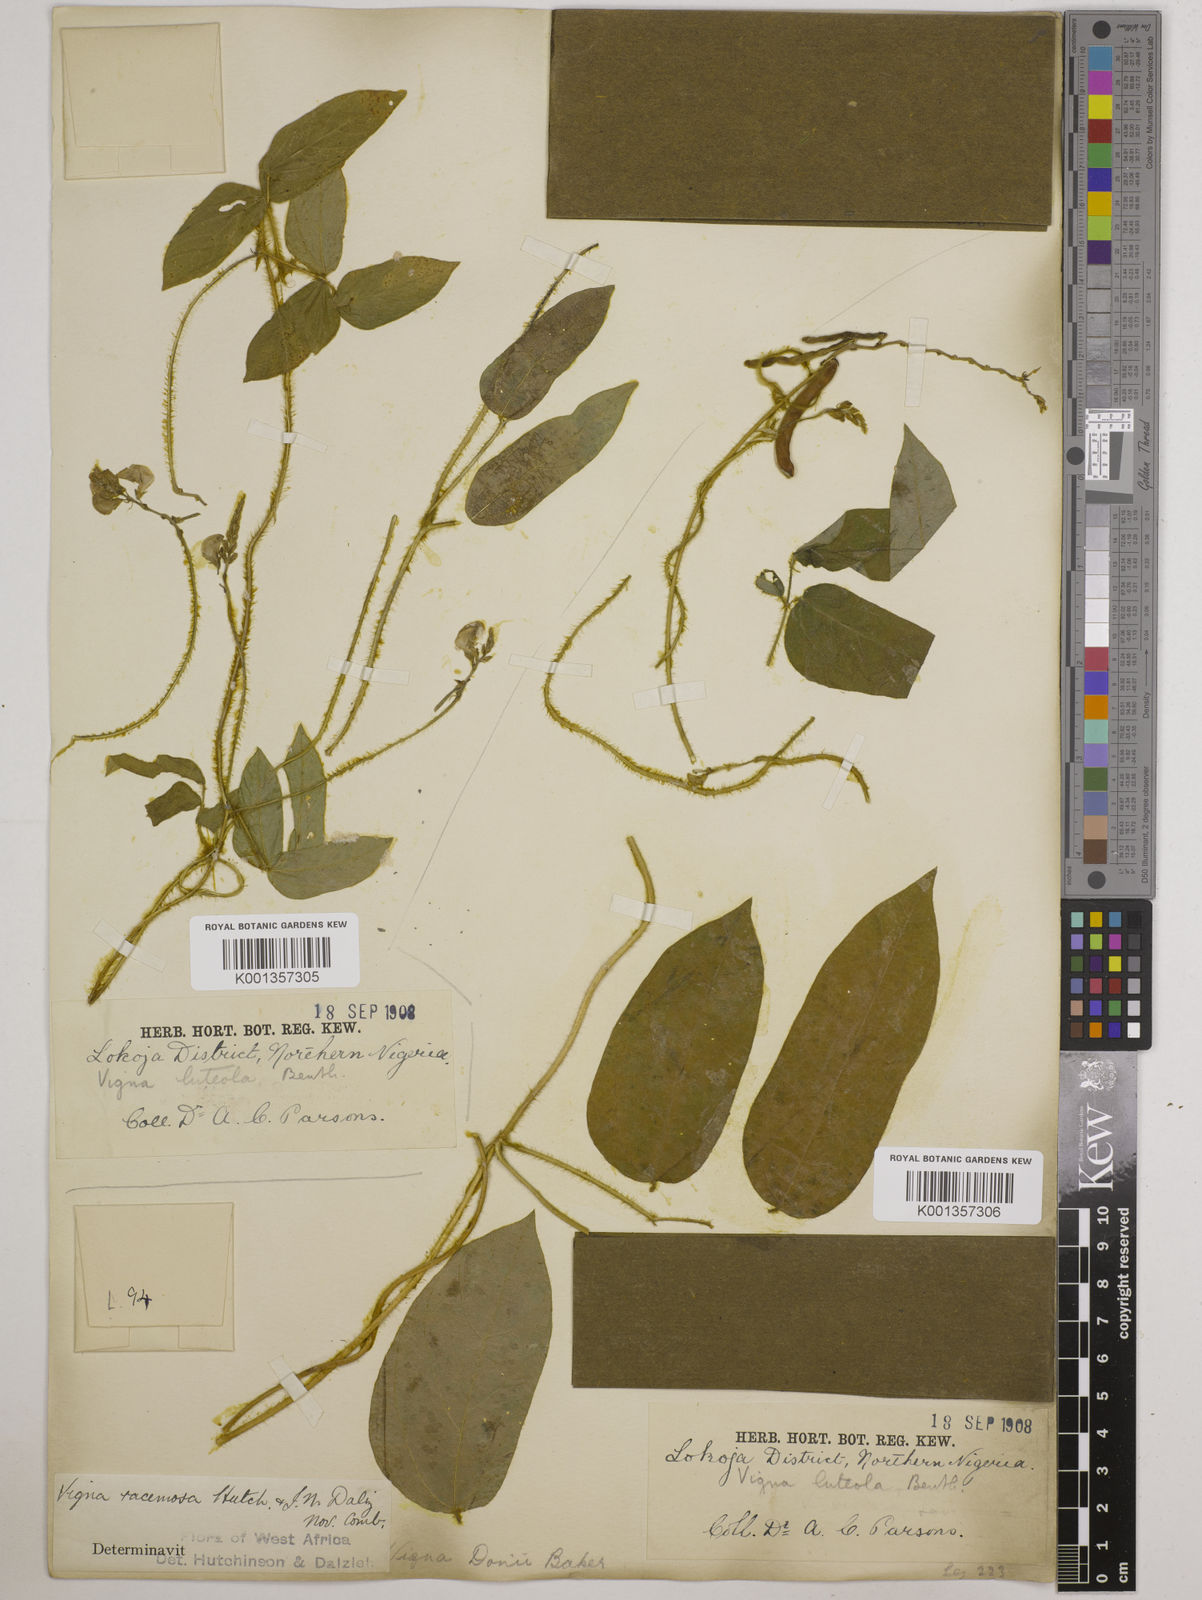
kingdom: Plantae
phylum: Tracheophyta
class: Magnoliopsida
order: Fabales
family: Fabaceae
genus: Vigna
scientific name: Vigna racemosa
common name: Beans not eaten
